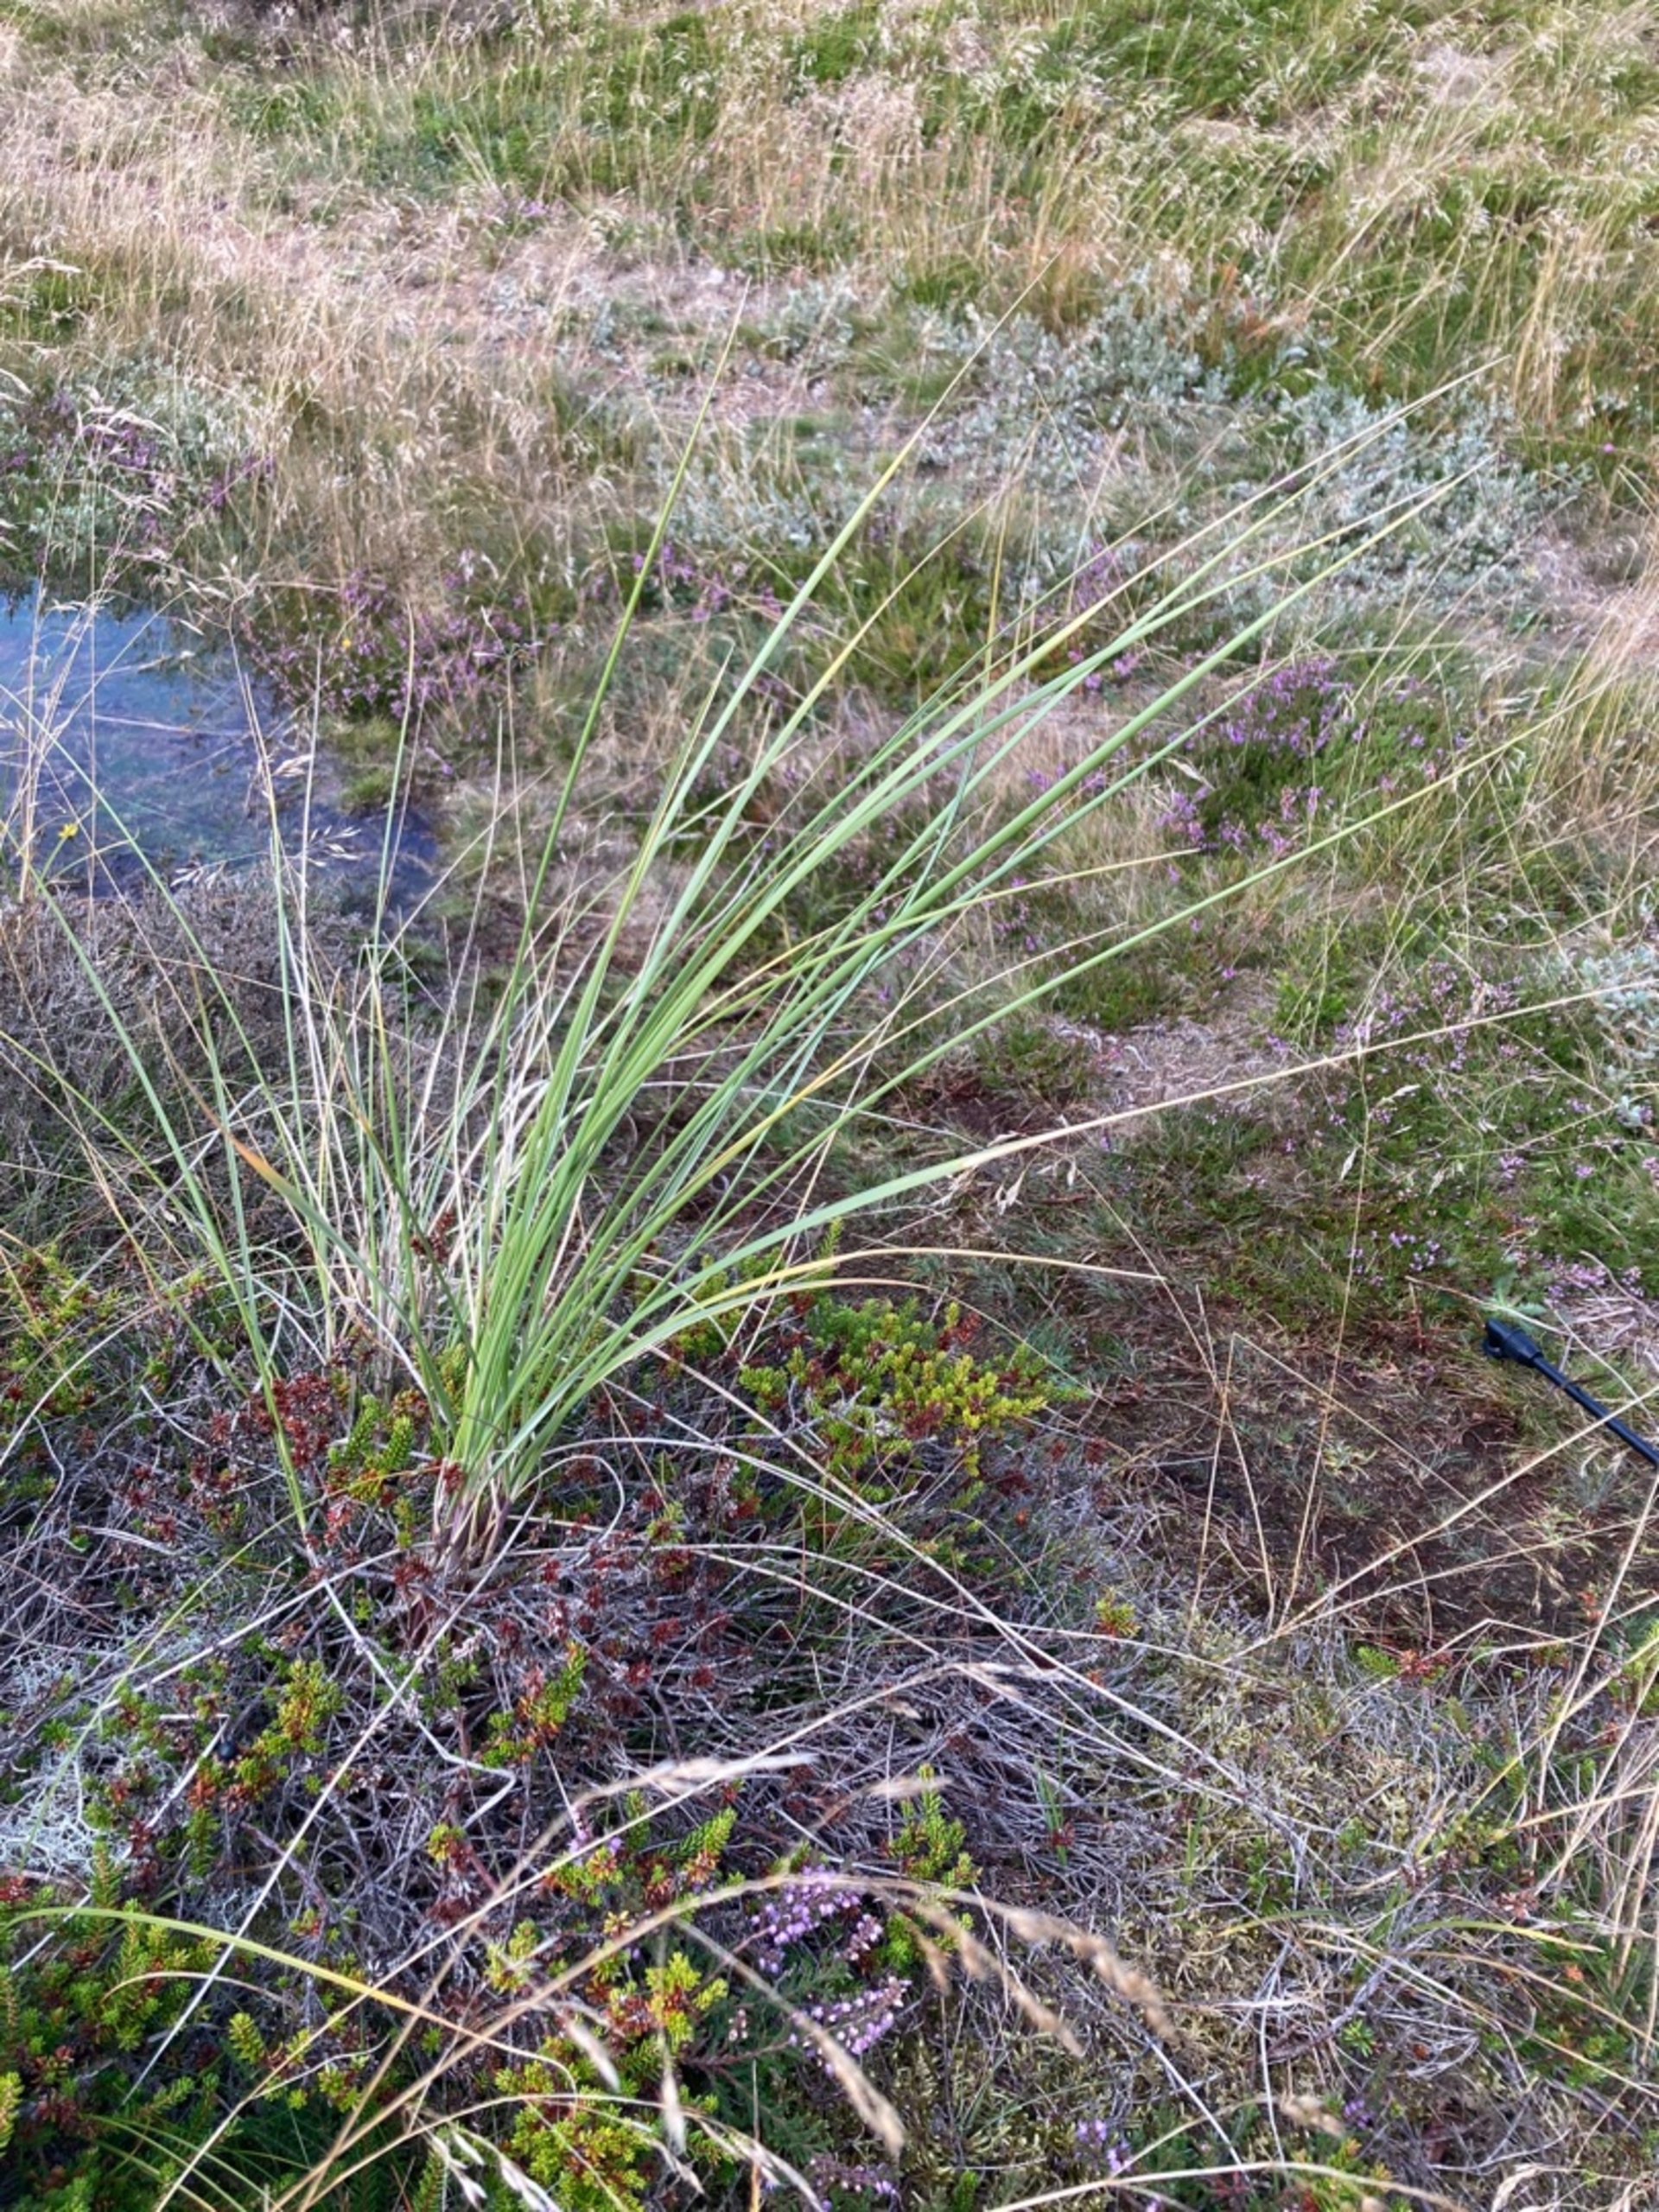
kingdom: Plantae
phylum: Tracheophyta
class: Liliopsida
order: Poales
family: Poaceae
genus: Calamagrostis
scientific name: Calamagrostis arenaria
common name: Sand-hjælme
